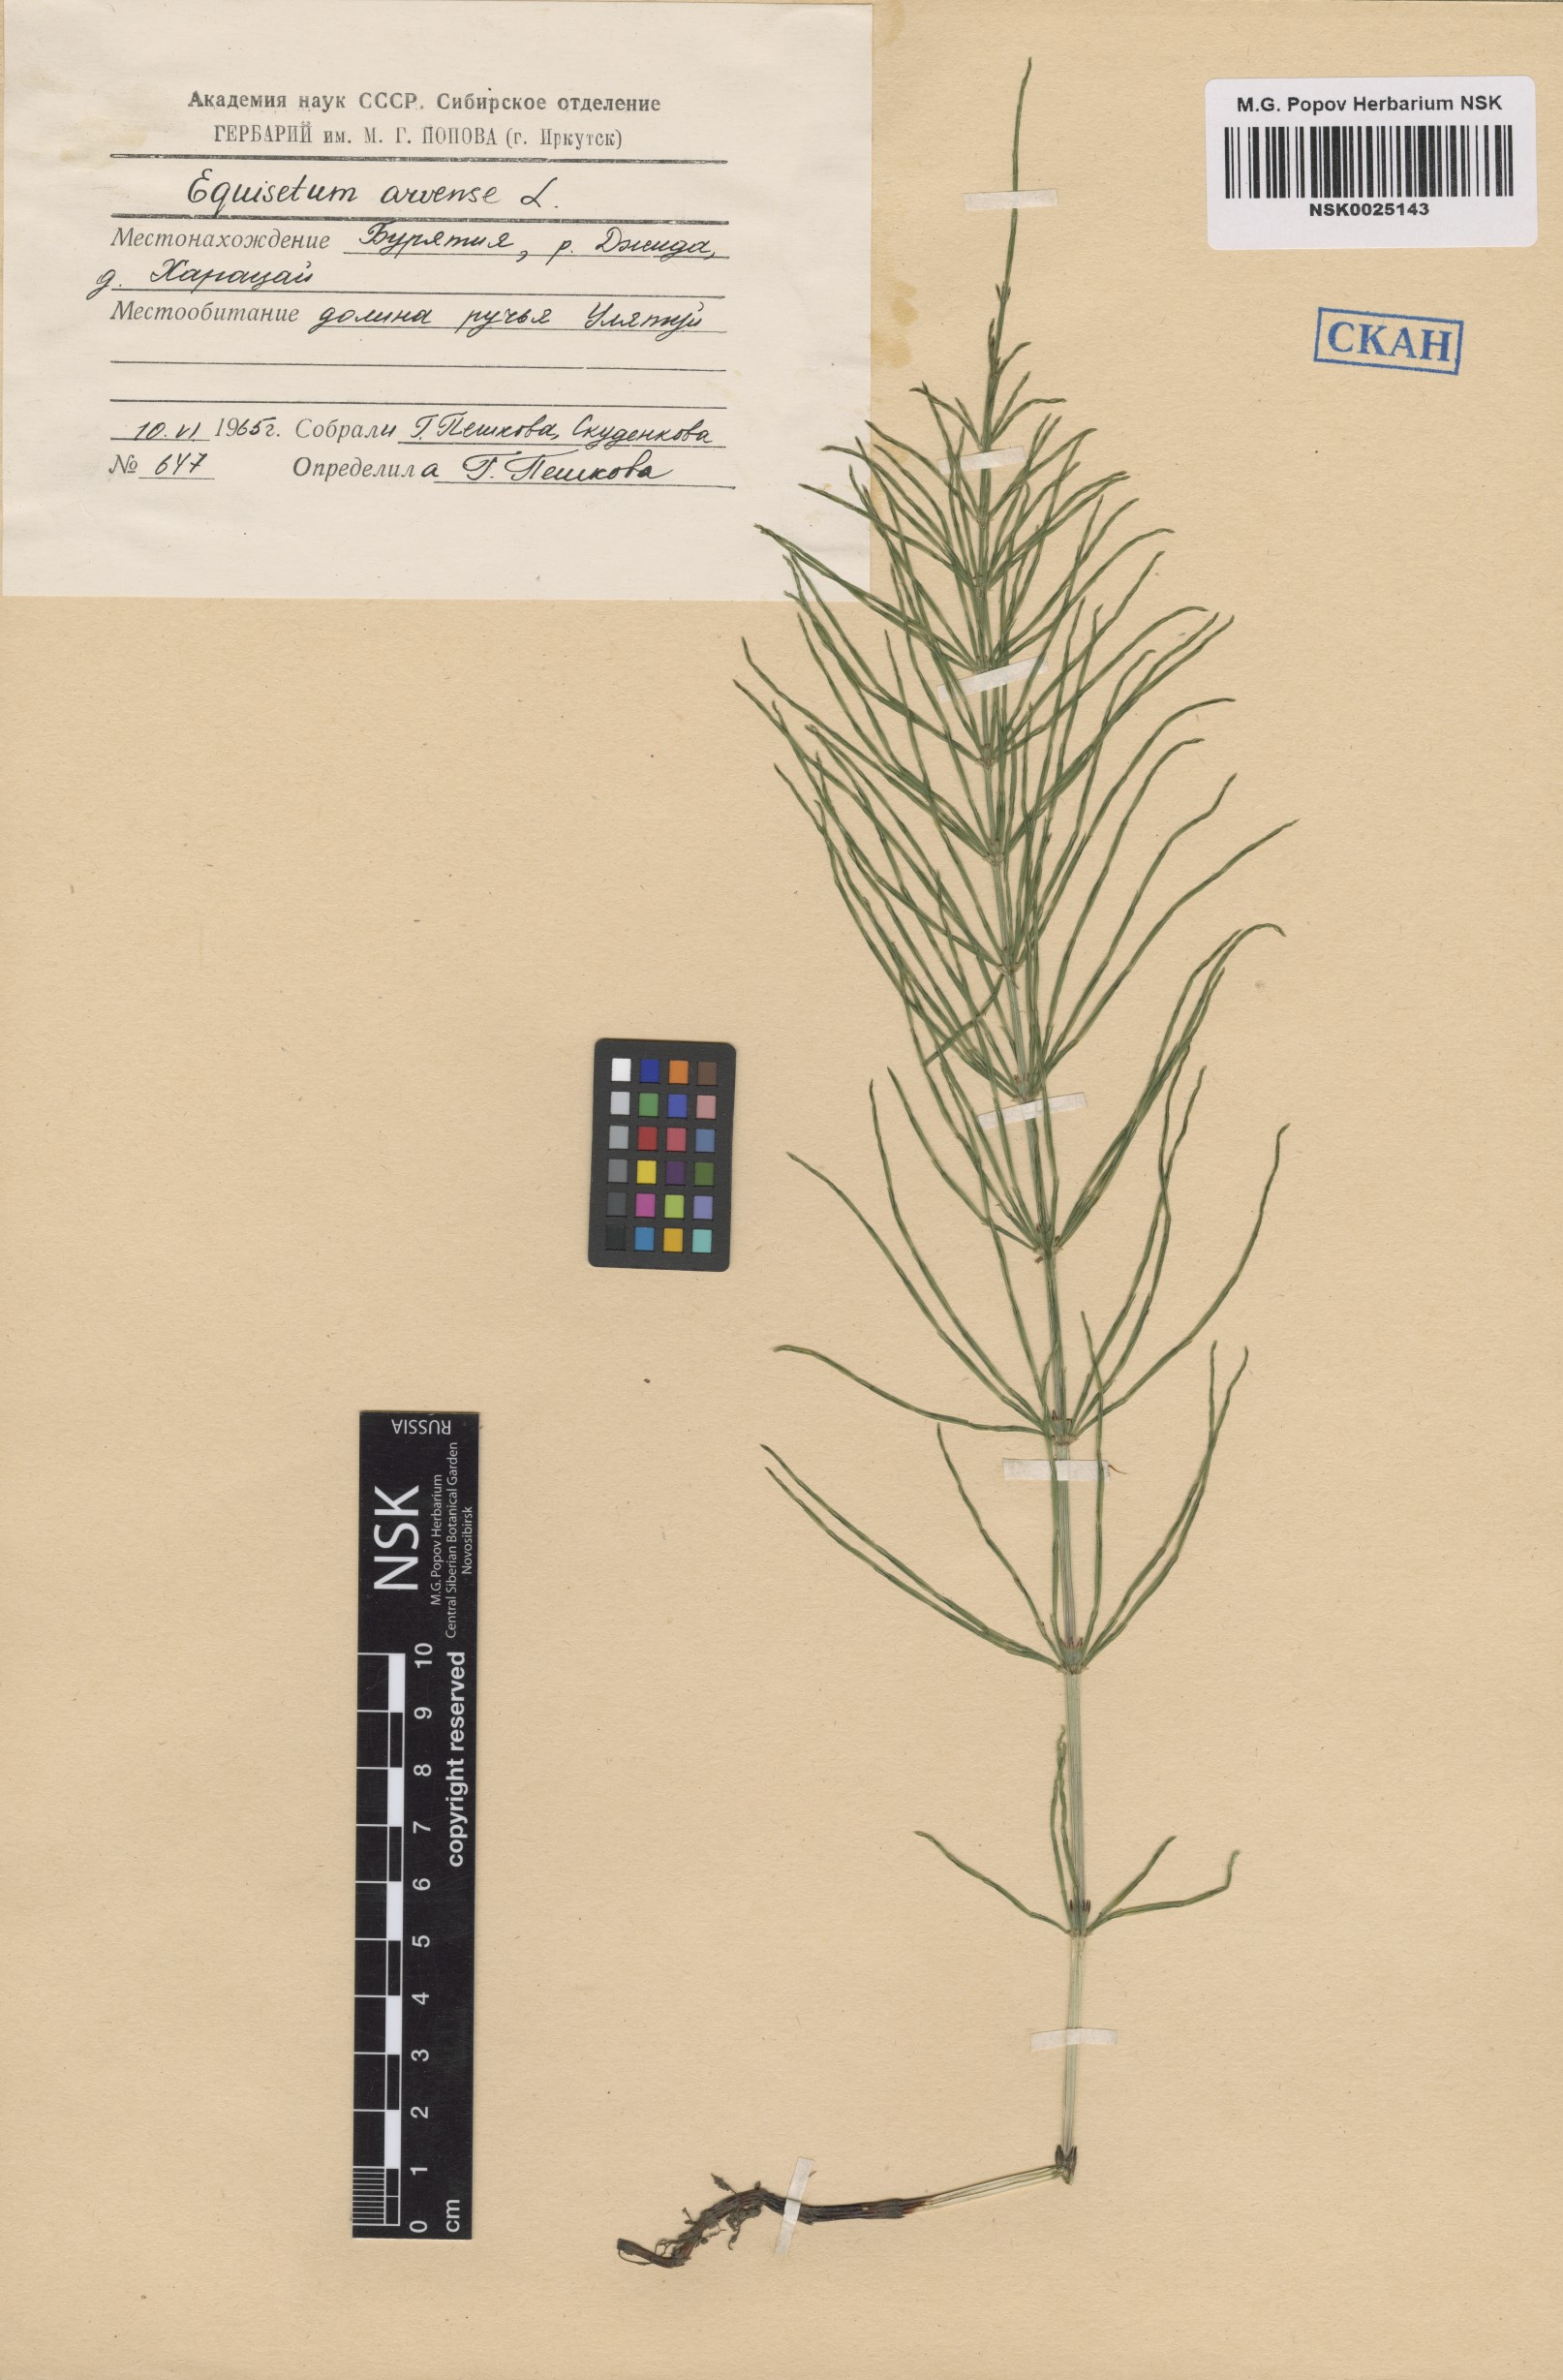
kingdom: Plantae
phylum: Tracheophyta
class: Polypodiopsida
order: Equisetales
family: Equisetaceae
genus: Equisetum
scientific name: Equisetum arvense
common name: Field horsetail
